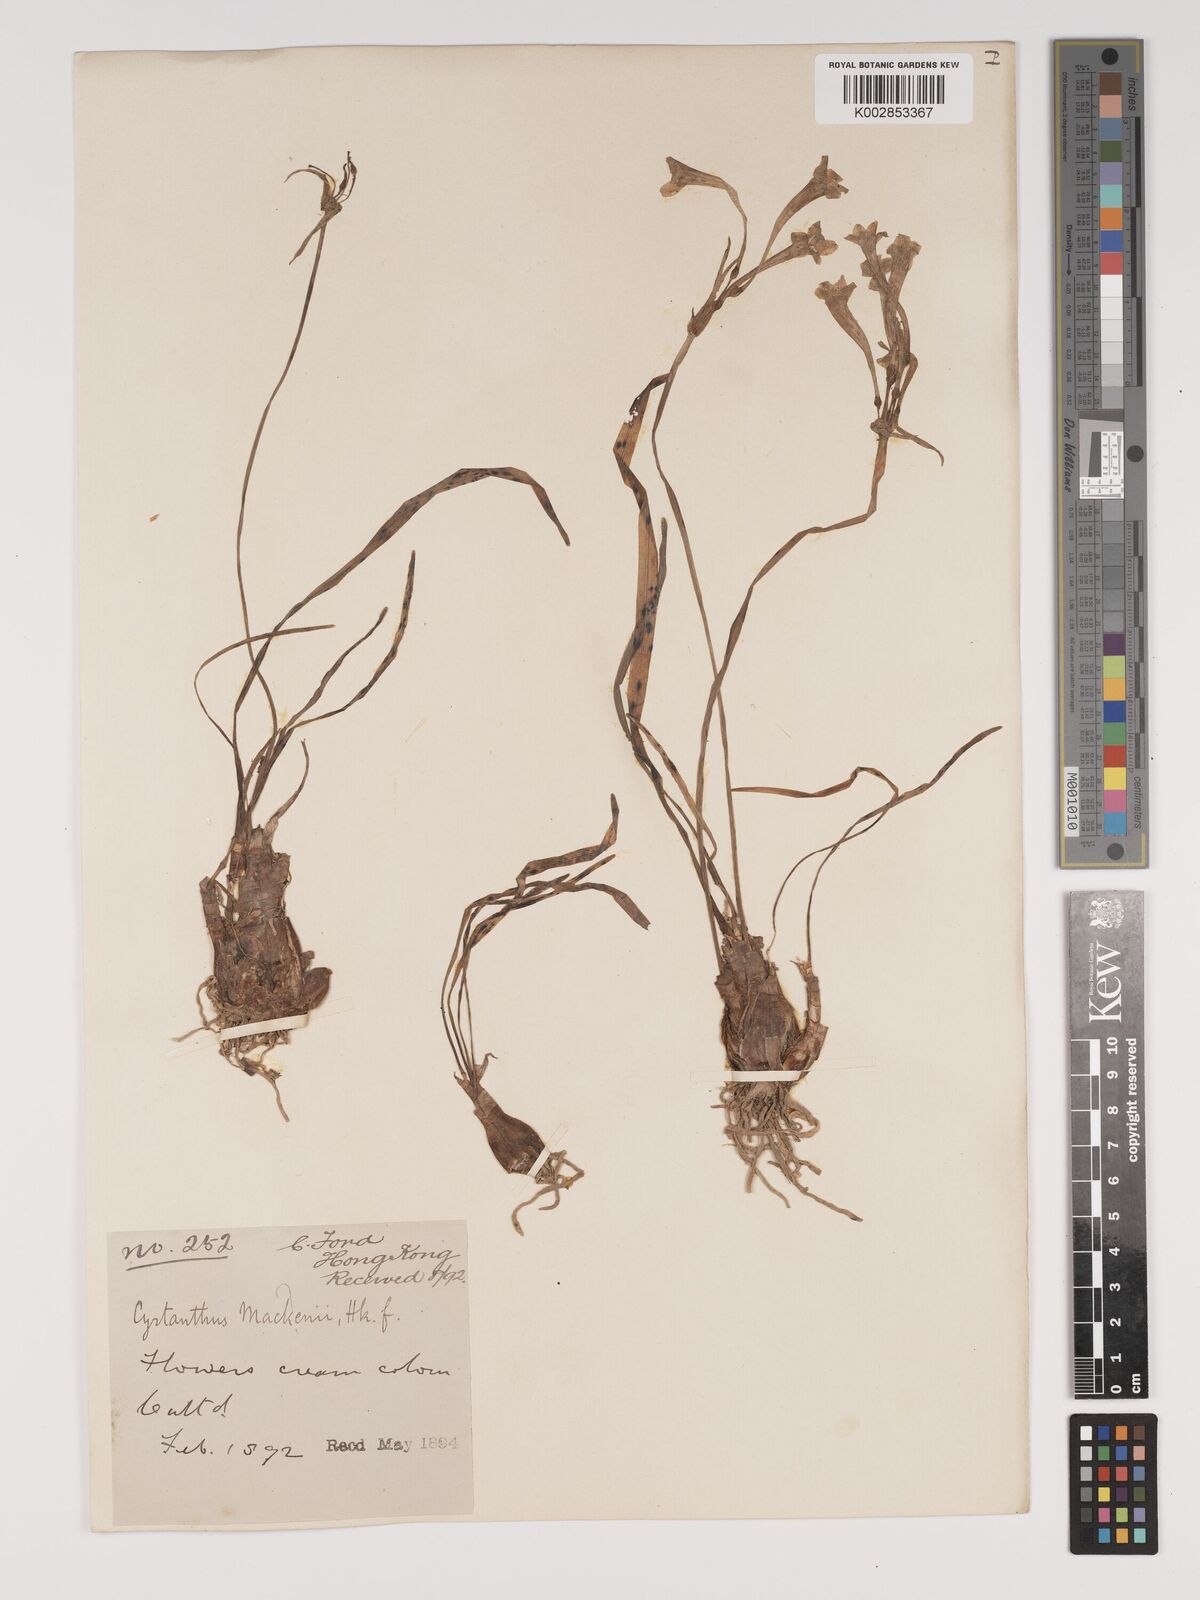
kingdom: Plantae
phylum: Tracheophyta
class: Liliopsida
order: Asparagales
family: Amaryllidaceae
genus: Cyrtanthus
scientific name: Cyrtanthus mackenii
